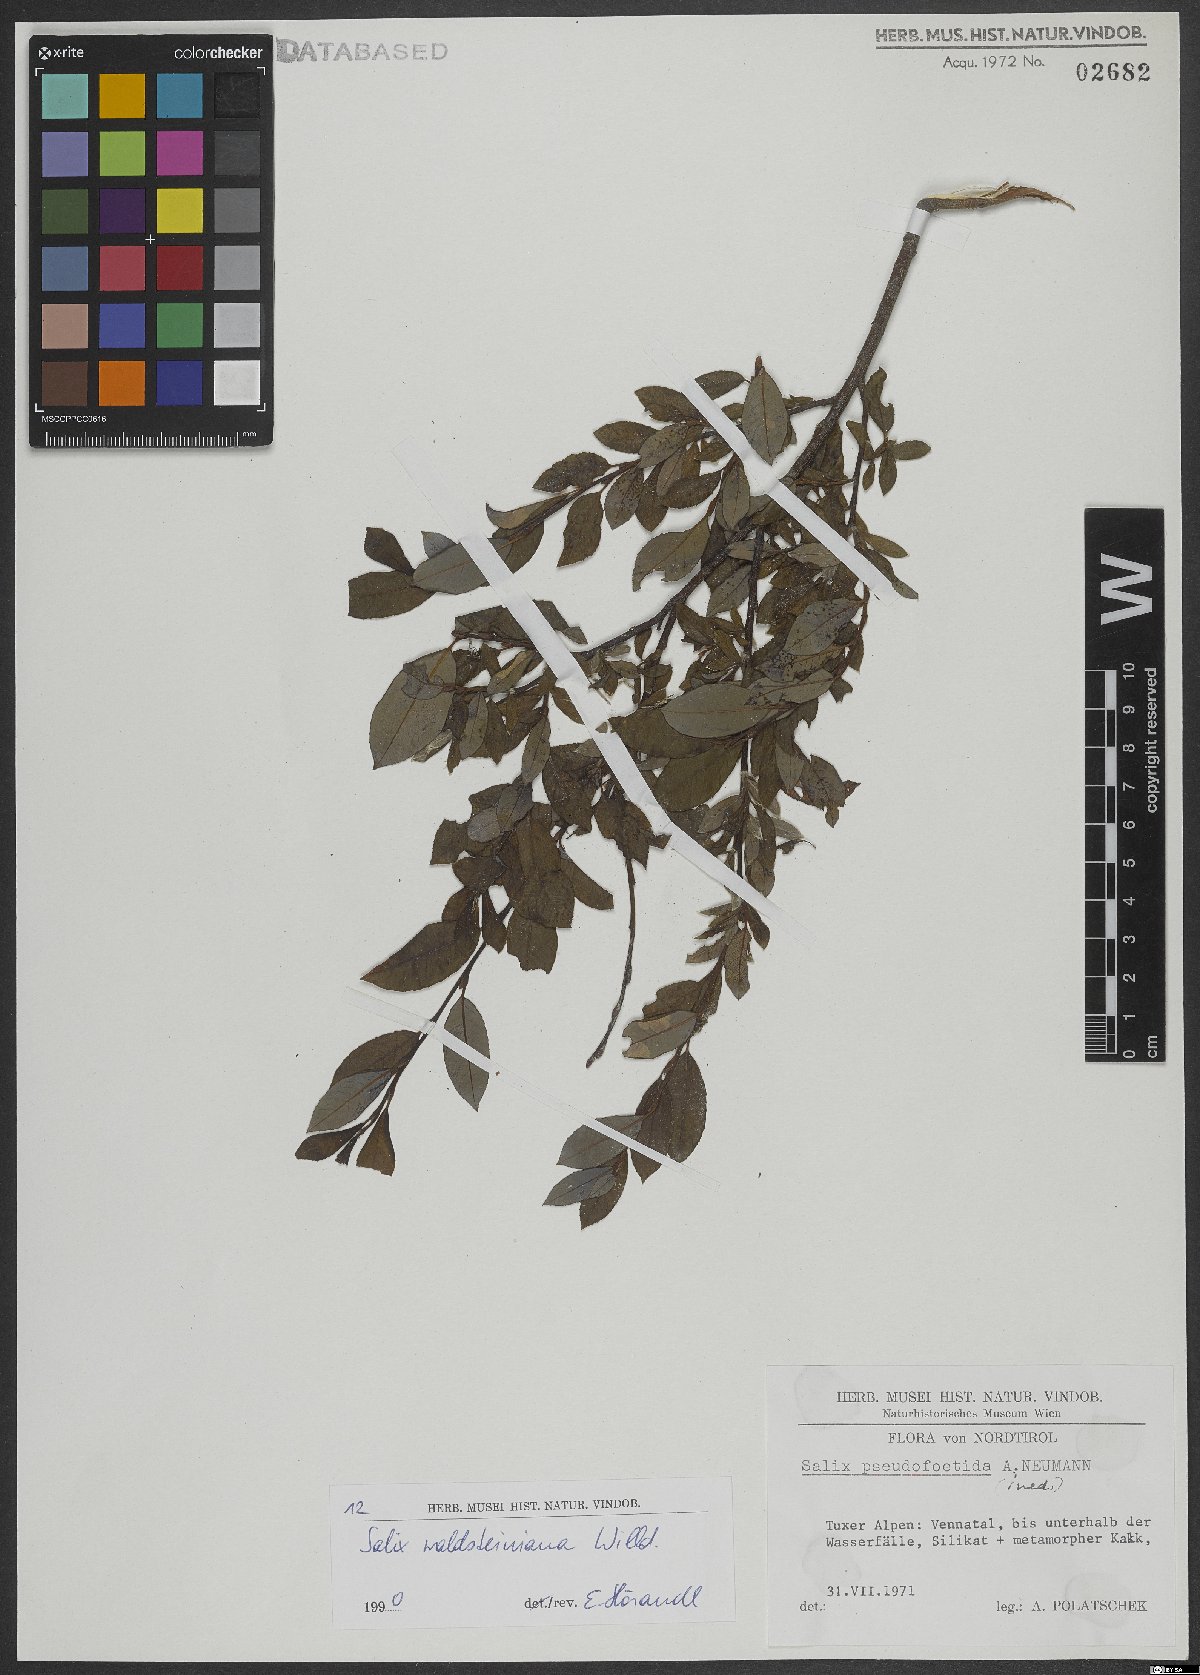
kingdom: Plantae
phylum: Tracheophyta
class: Magnoliopsida
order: Malpighiales
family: Salicaceae
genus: Salix
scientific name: Salix waldsteiniana
